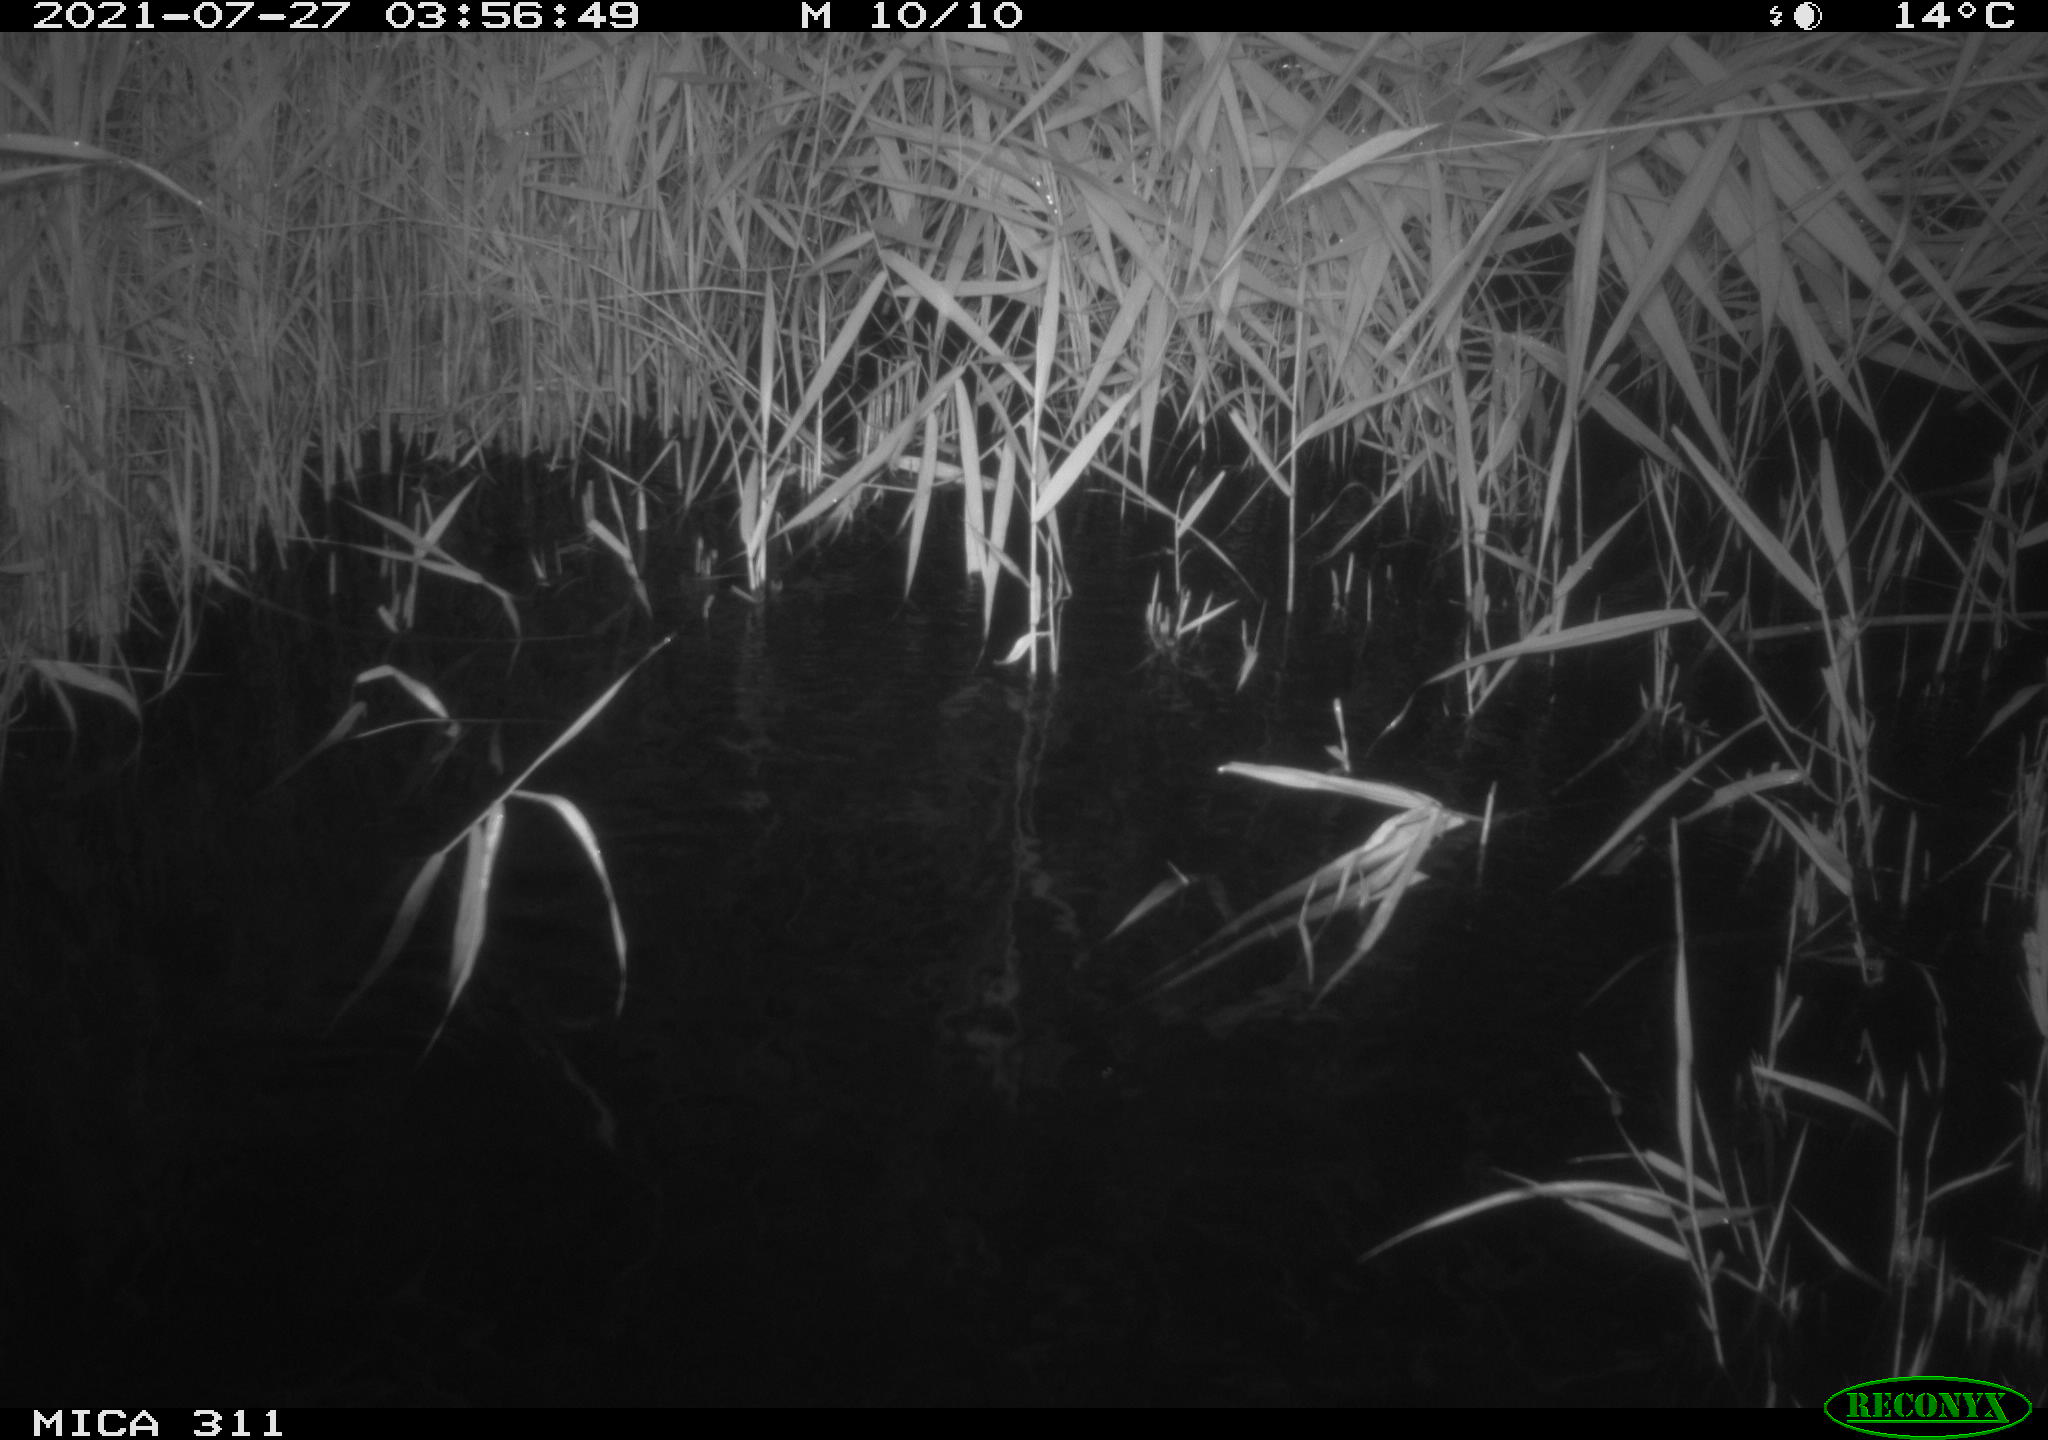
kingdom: Animalia
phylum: Chordata
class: Mammalia
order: Rodentia
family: Muridae
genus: Rattus
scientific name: Rattus norvegicus
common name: Brown rat
